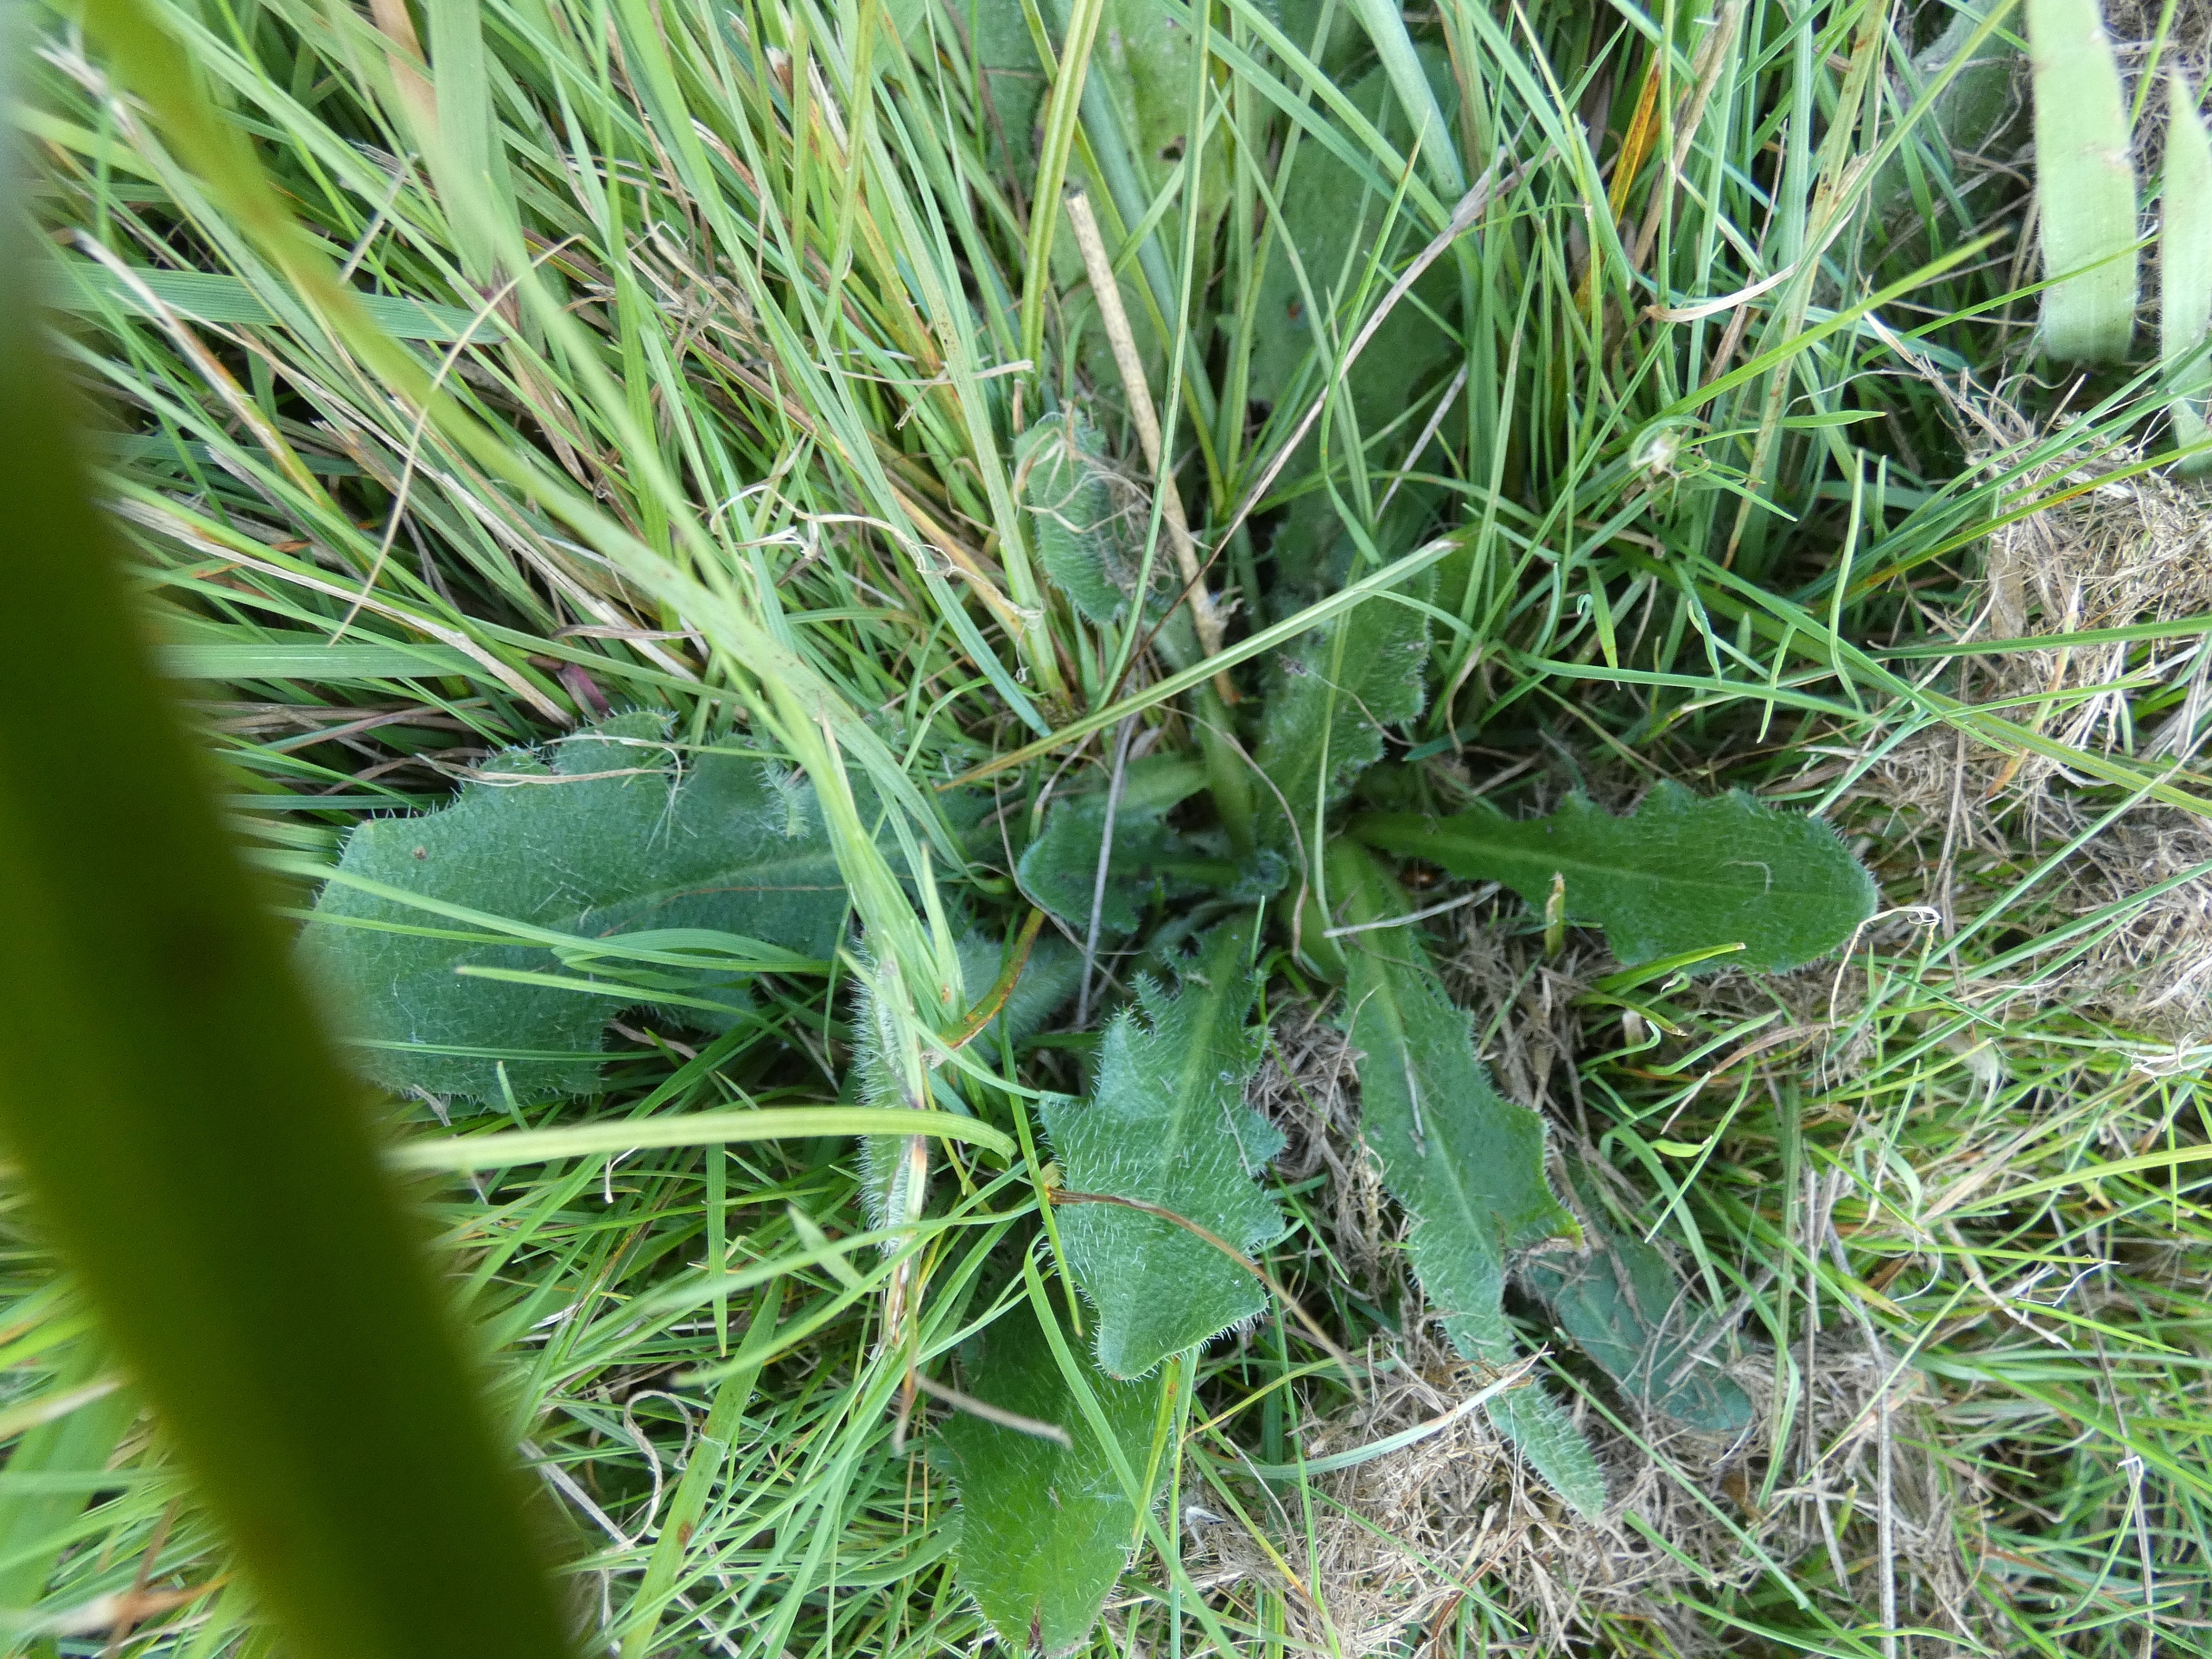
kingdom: Plantae
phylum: Tracheophyta
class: Magnoliopsida
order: Asterales
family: Asteraceae
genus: Hypochaeris
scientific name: Hypochaeris radicata
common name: Almindelig kongepen
